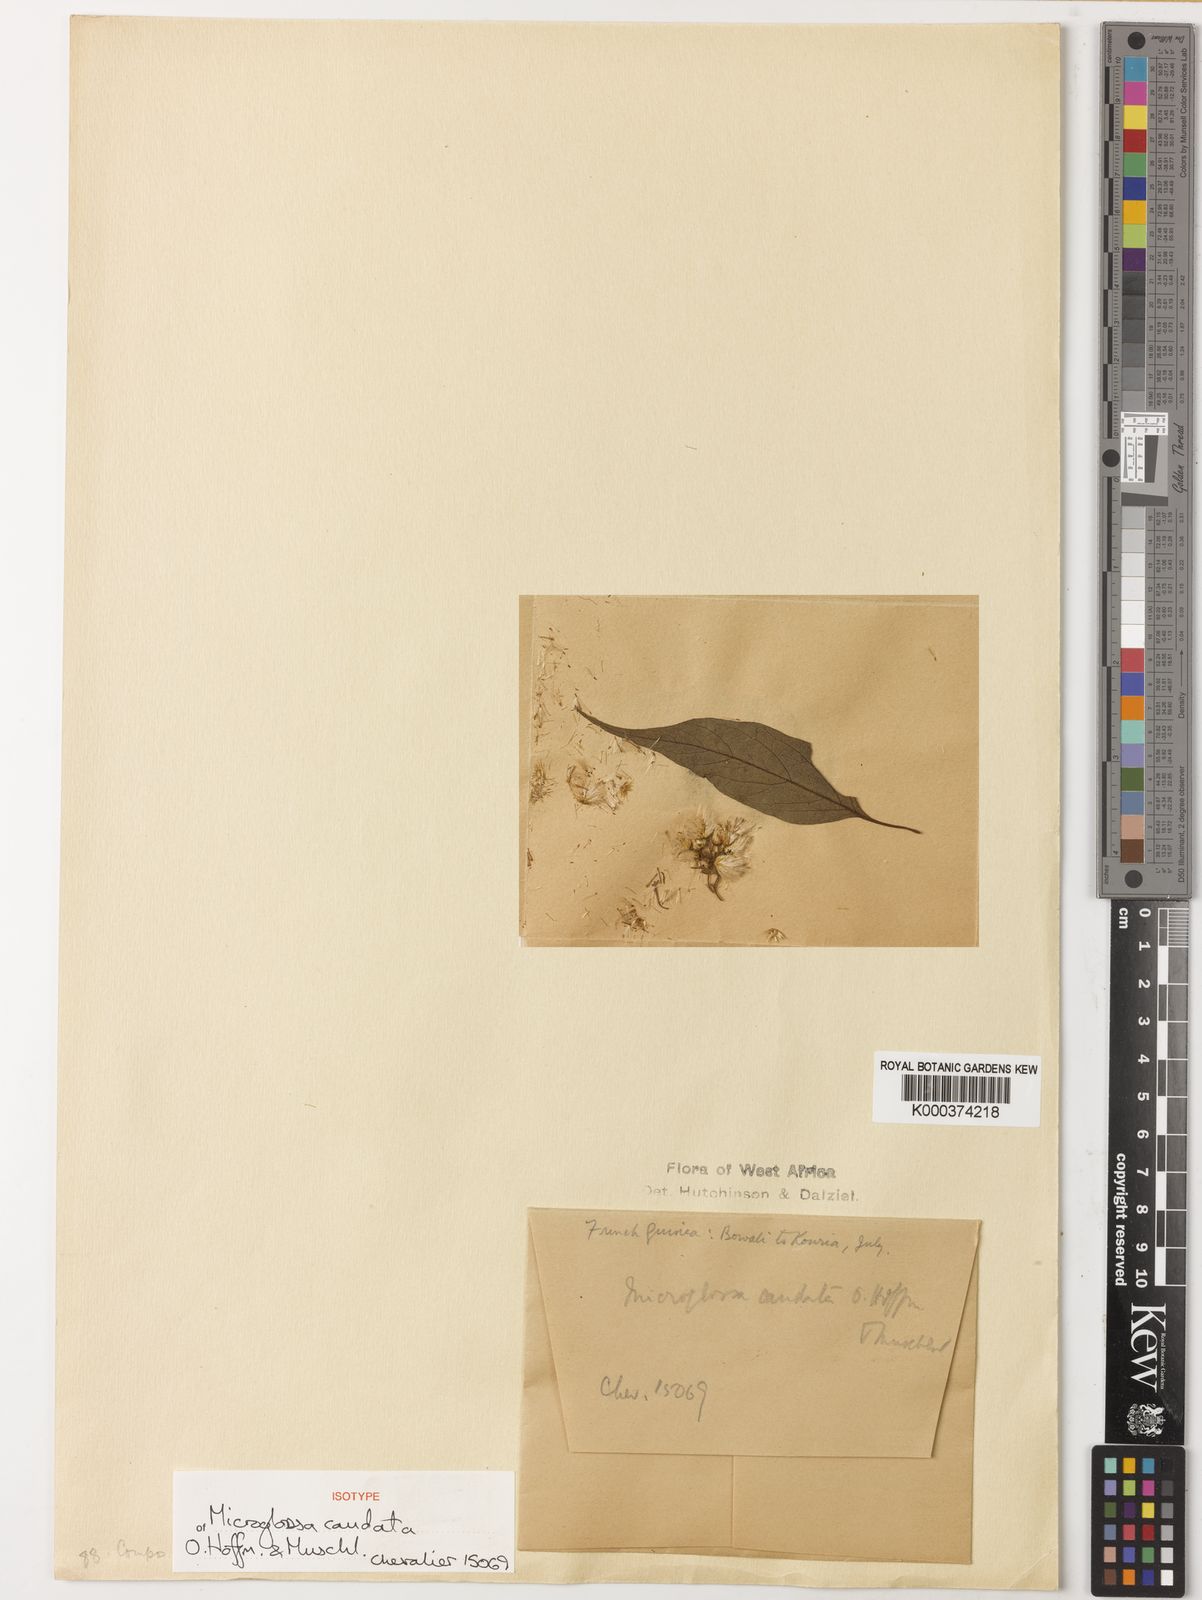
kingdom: Plantae
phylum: Tracheophyta
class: Magnoliopsida
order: Asterales
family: Asteraceae
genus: Microglossa
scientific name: Microglossa caudata
